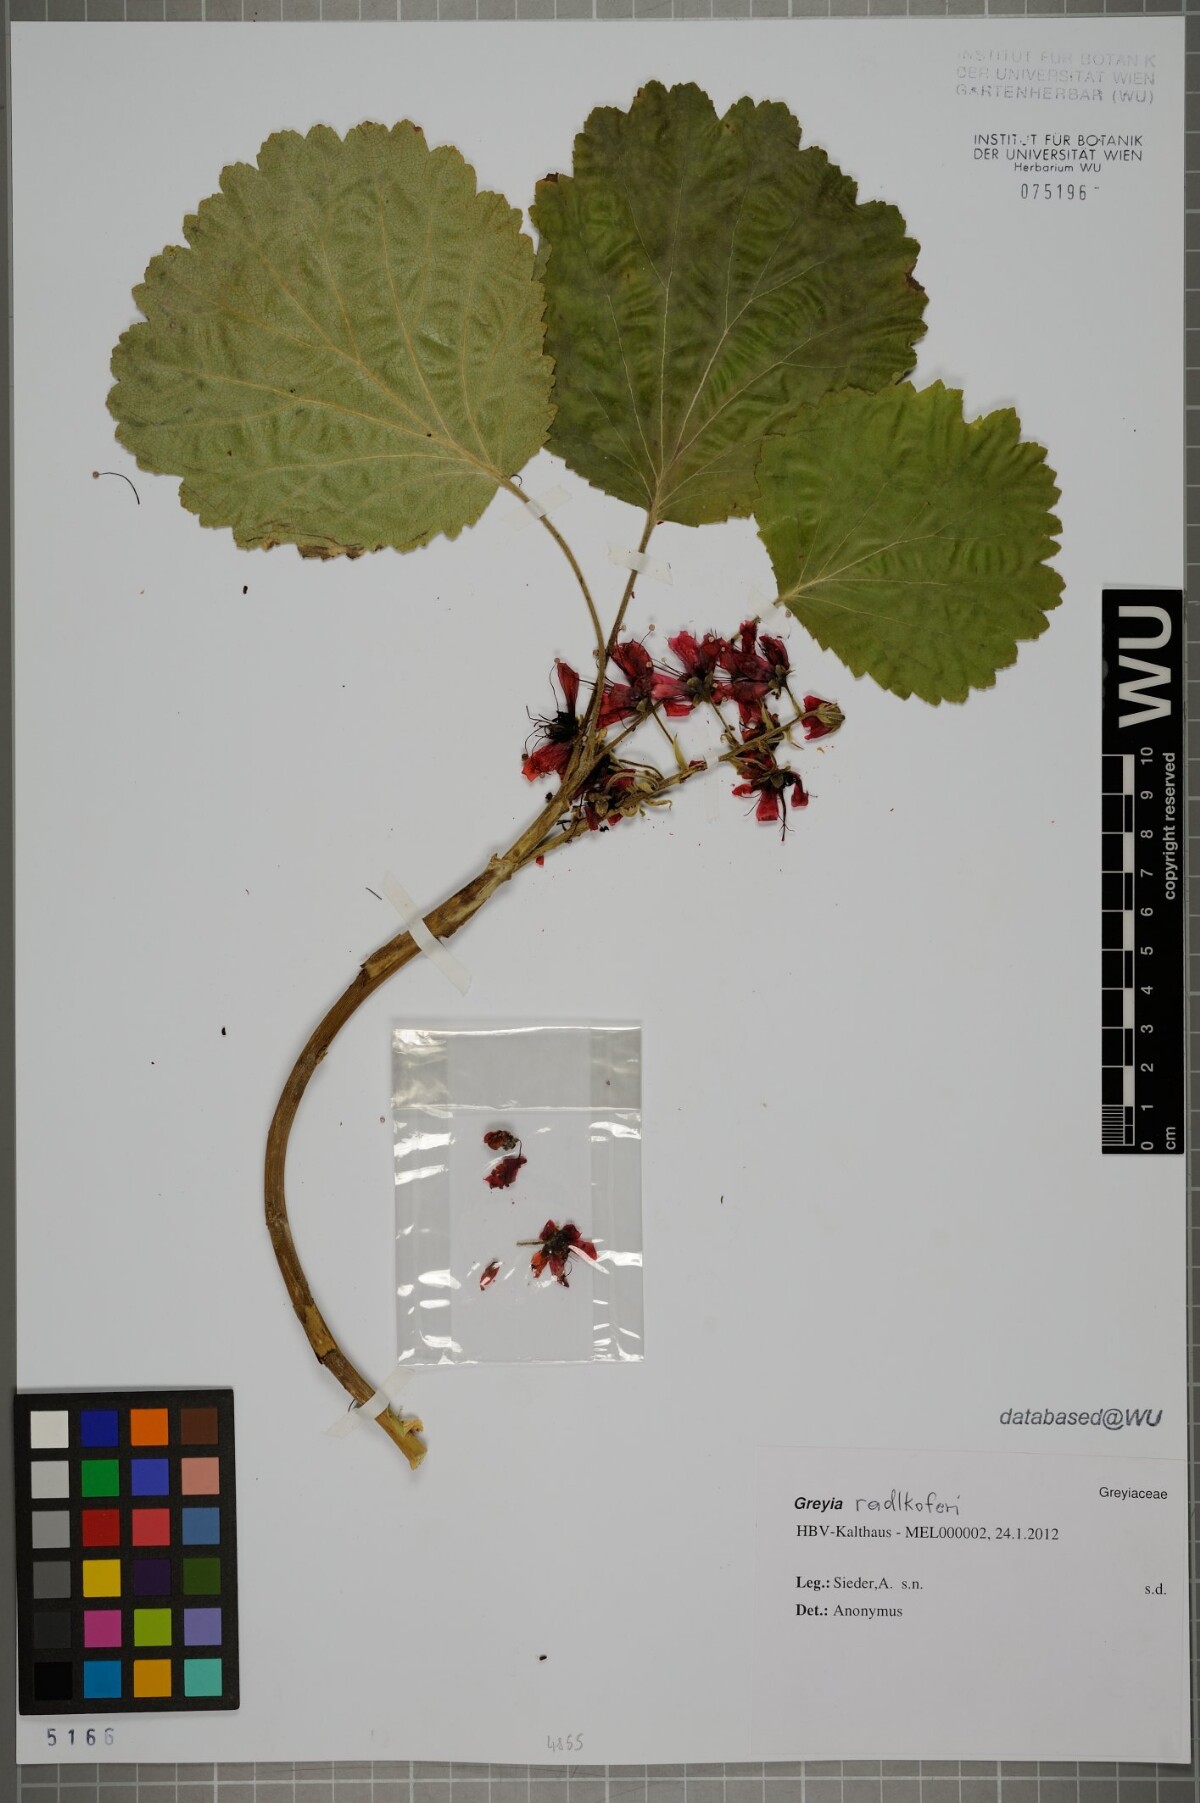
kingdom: Plantae
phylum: Tracheophyta
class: Magnoliopsida
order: Geraniales
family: Francoaceae
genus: Greyia
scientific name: Greyia radlkoferi
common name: Natal bottlebrush
